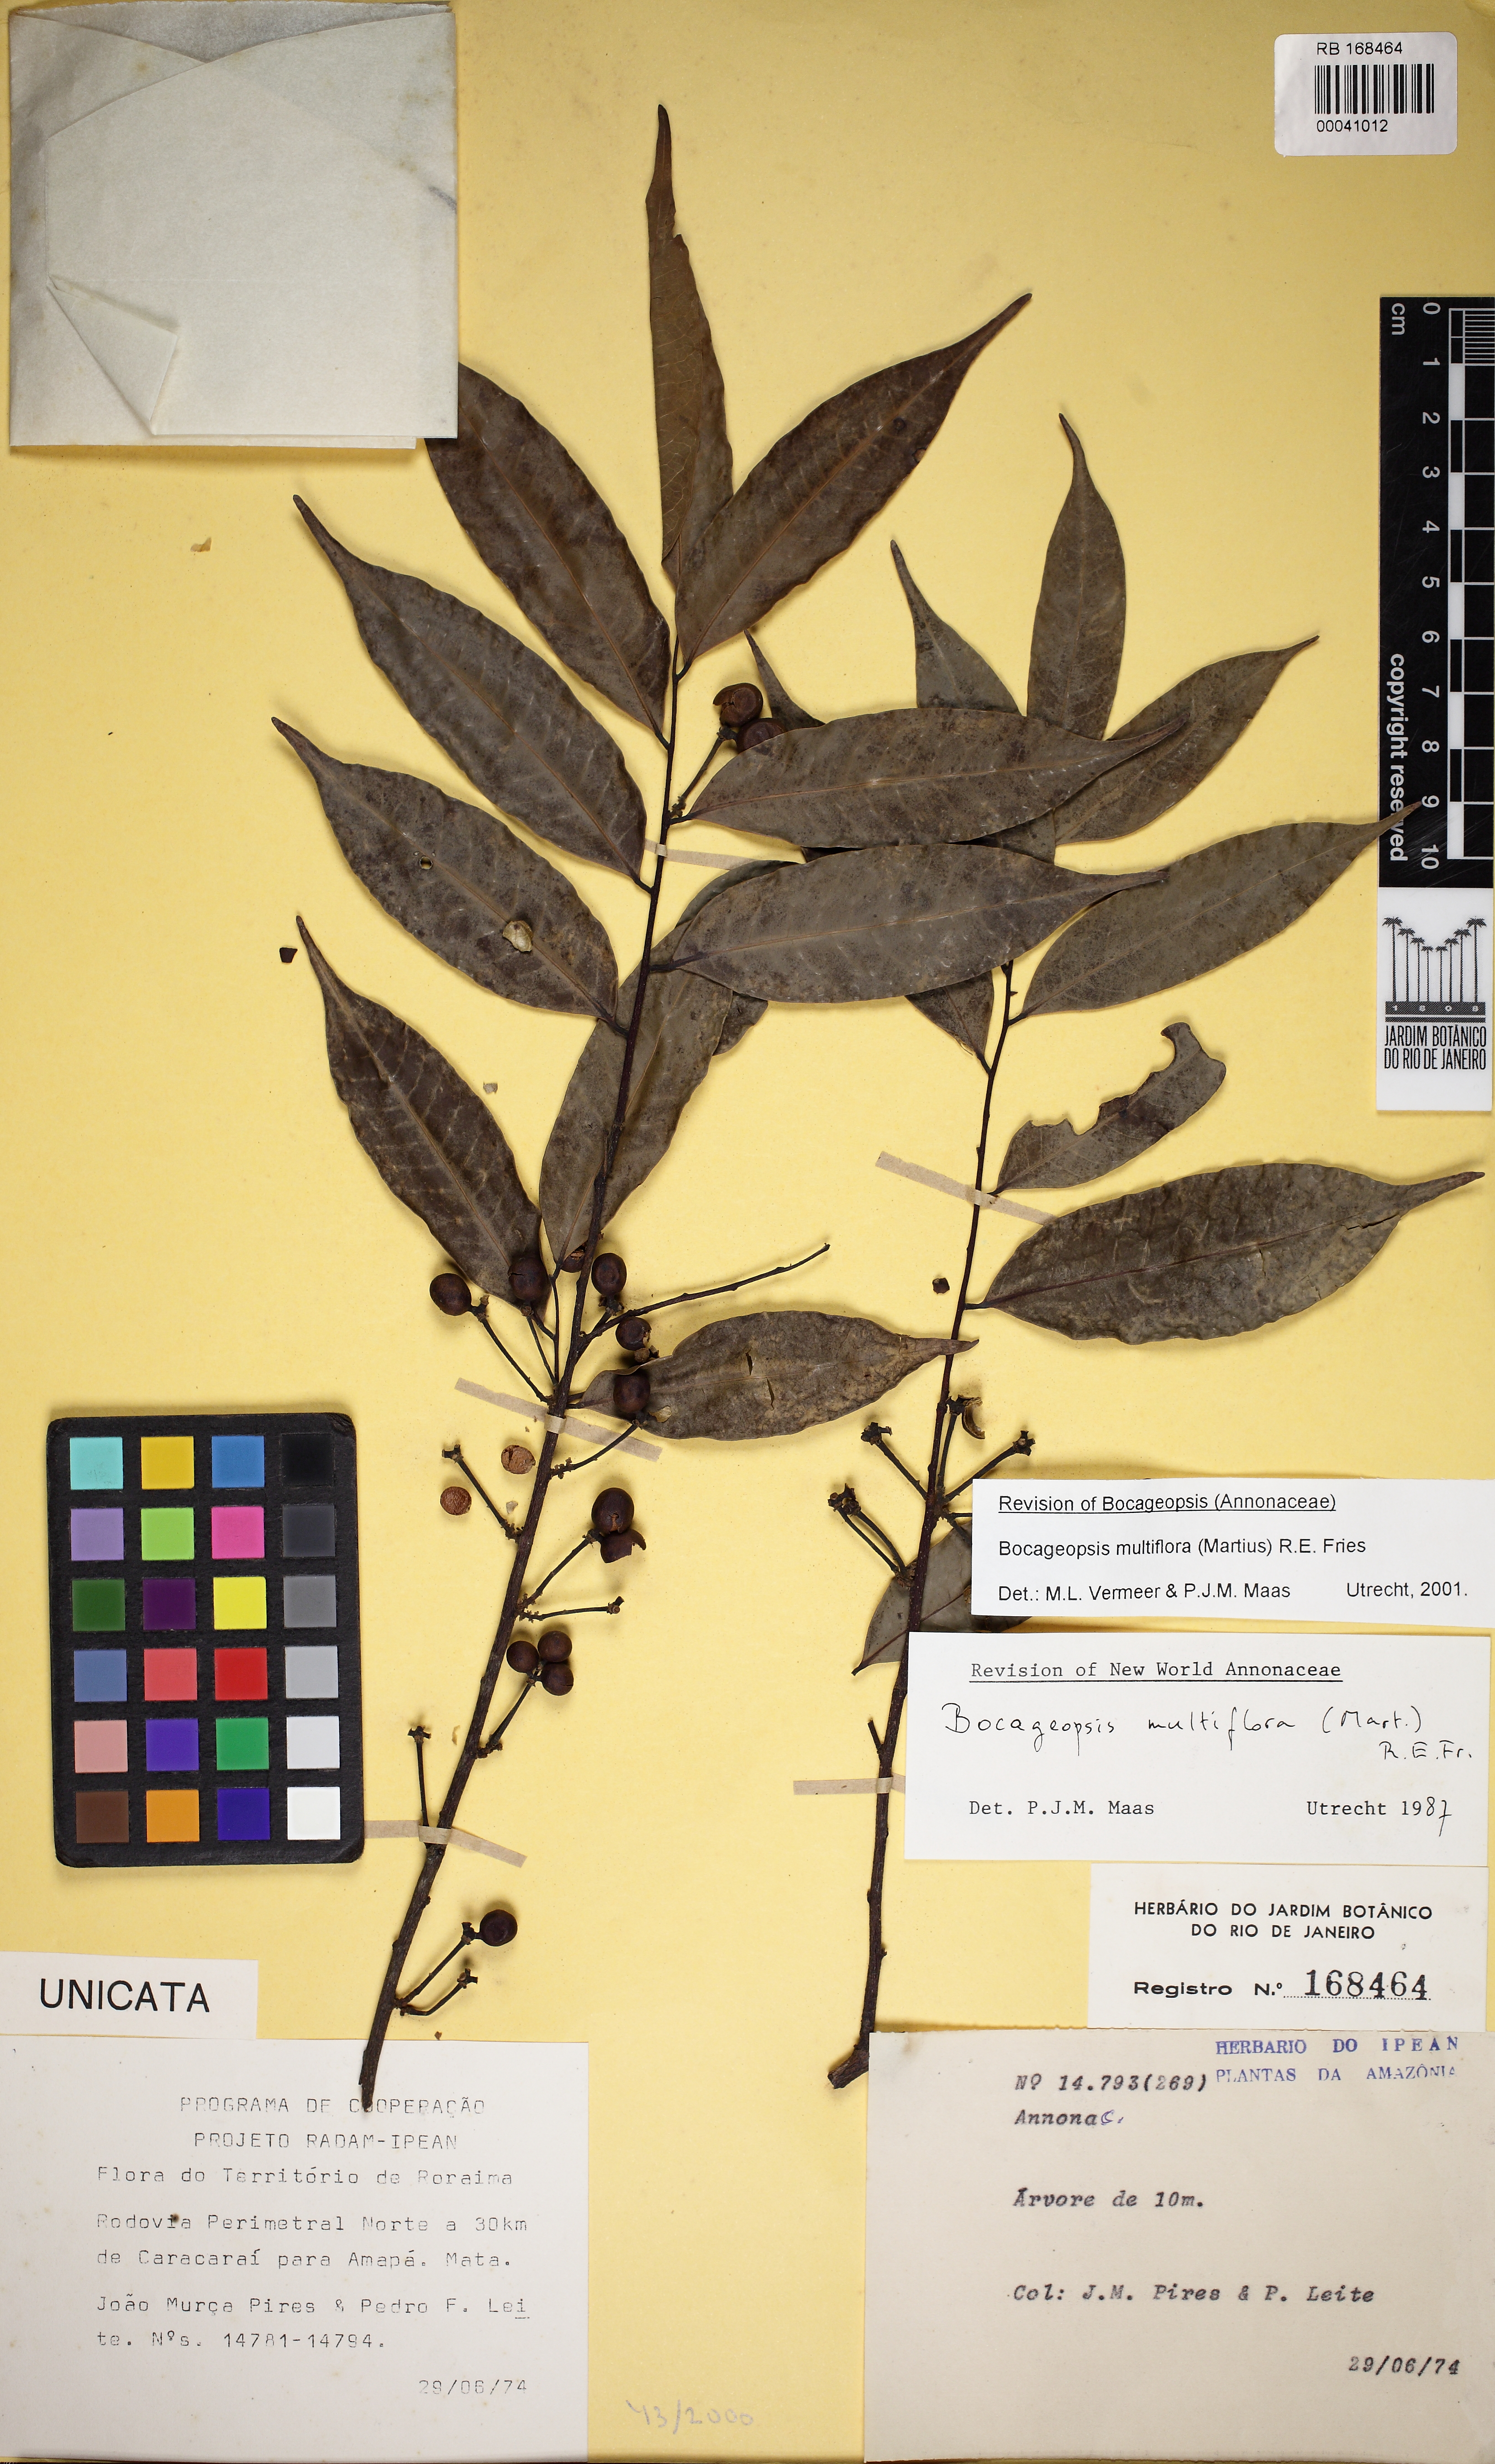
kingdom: Plantae
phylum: Tracheophyta
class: Magnoliopsida
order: Magnoliales
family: Annonaceae
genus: Bocageopsis
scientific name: Bocageopsis multiflora
